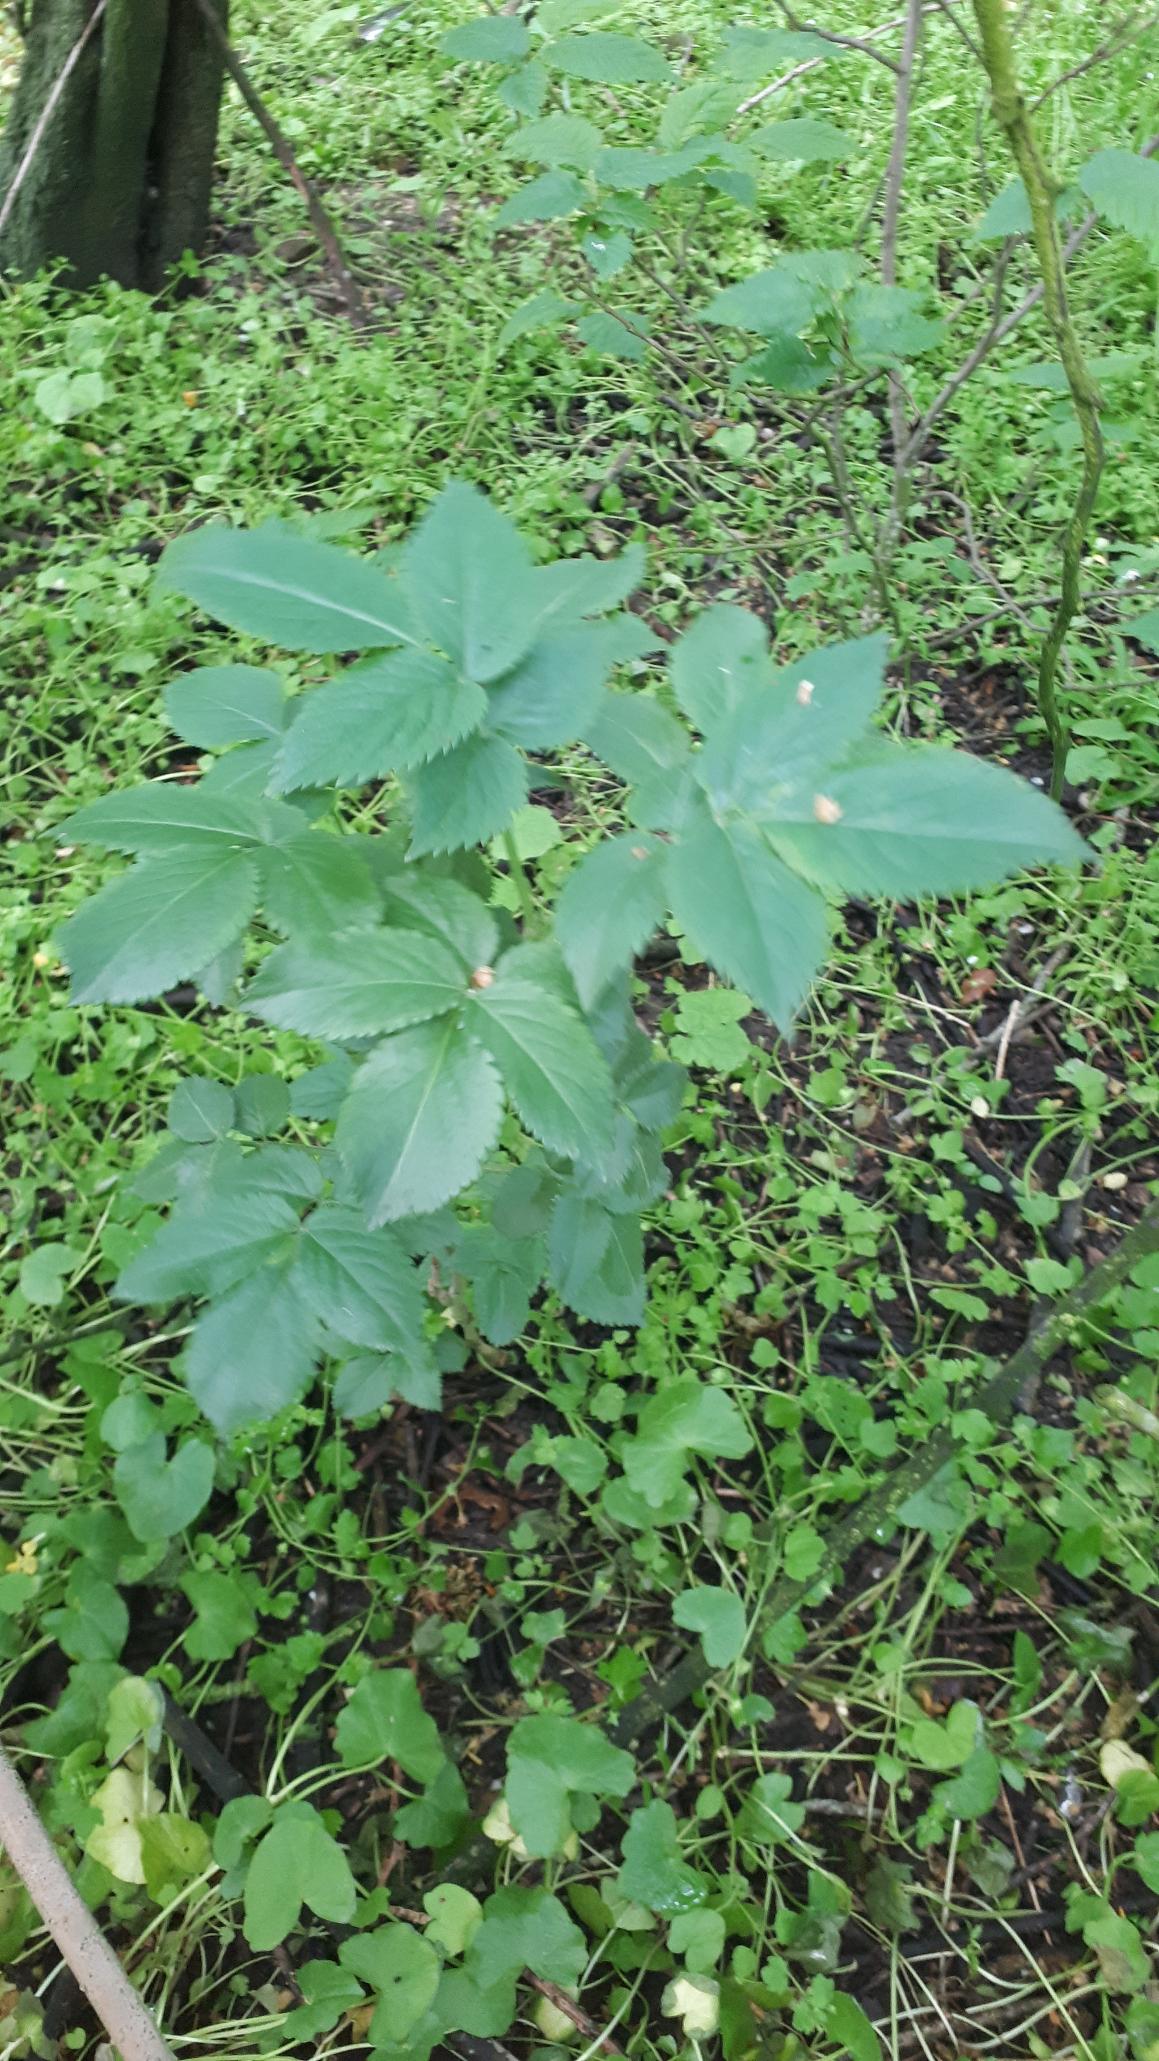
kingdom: Plantae
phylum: Tracheophyta
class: Magnoliopsida
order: Apiales
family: Apiaceae
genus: Aegopodium
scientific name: Aegopodium podagraria
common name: Skvalderkål
